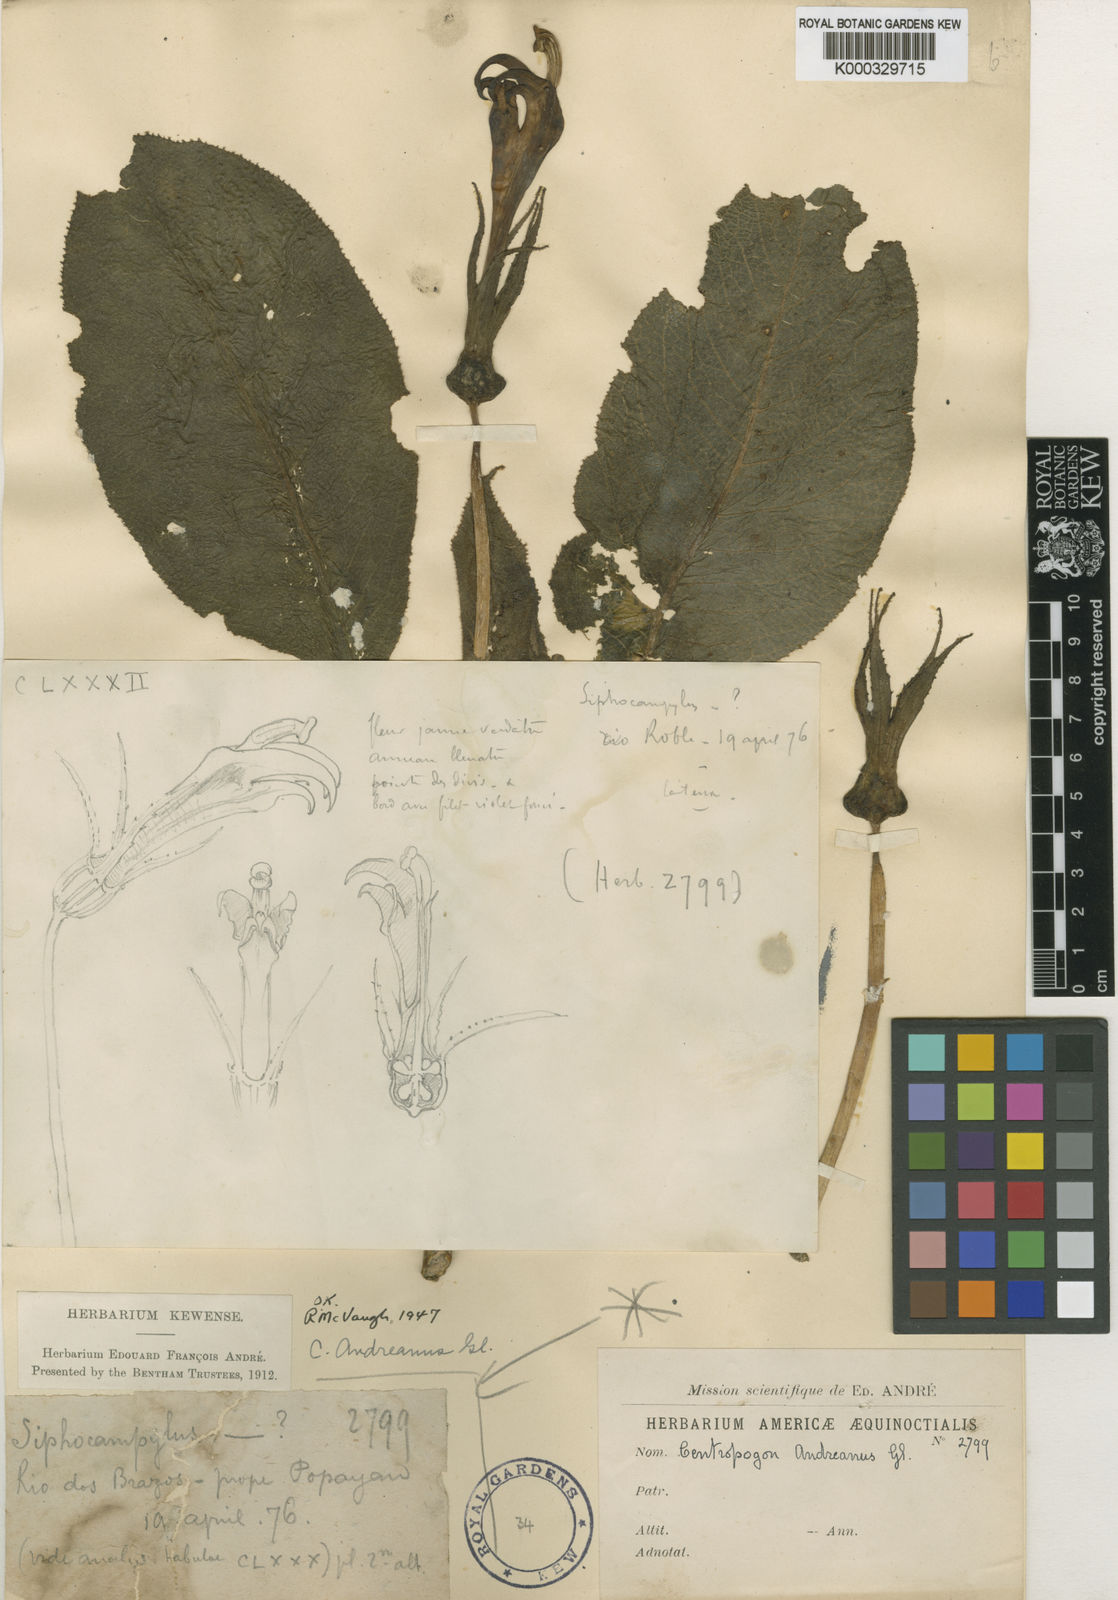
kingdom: Plantae
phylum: Tracheophyta
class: Magnoliopsida
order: Asterales
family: Campanulaceae
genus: Centropogon
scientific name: Centropogon nigricans
